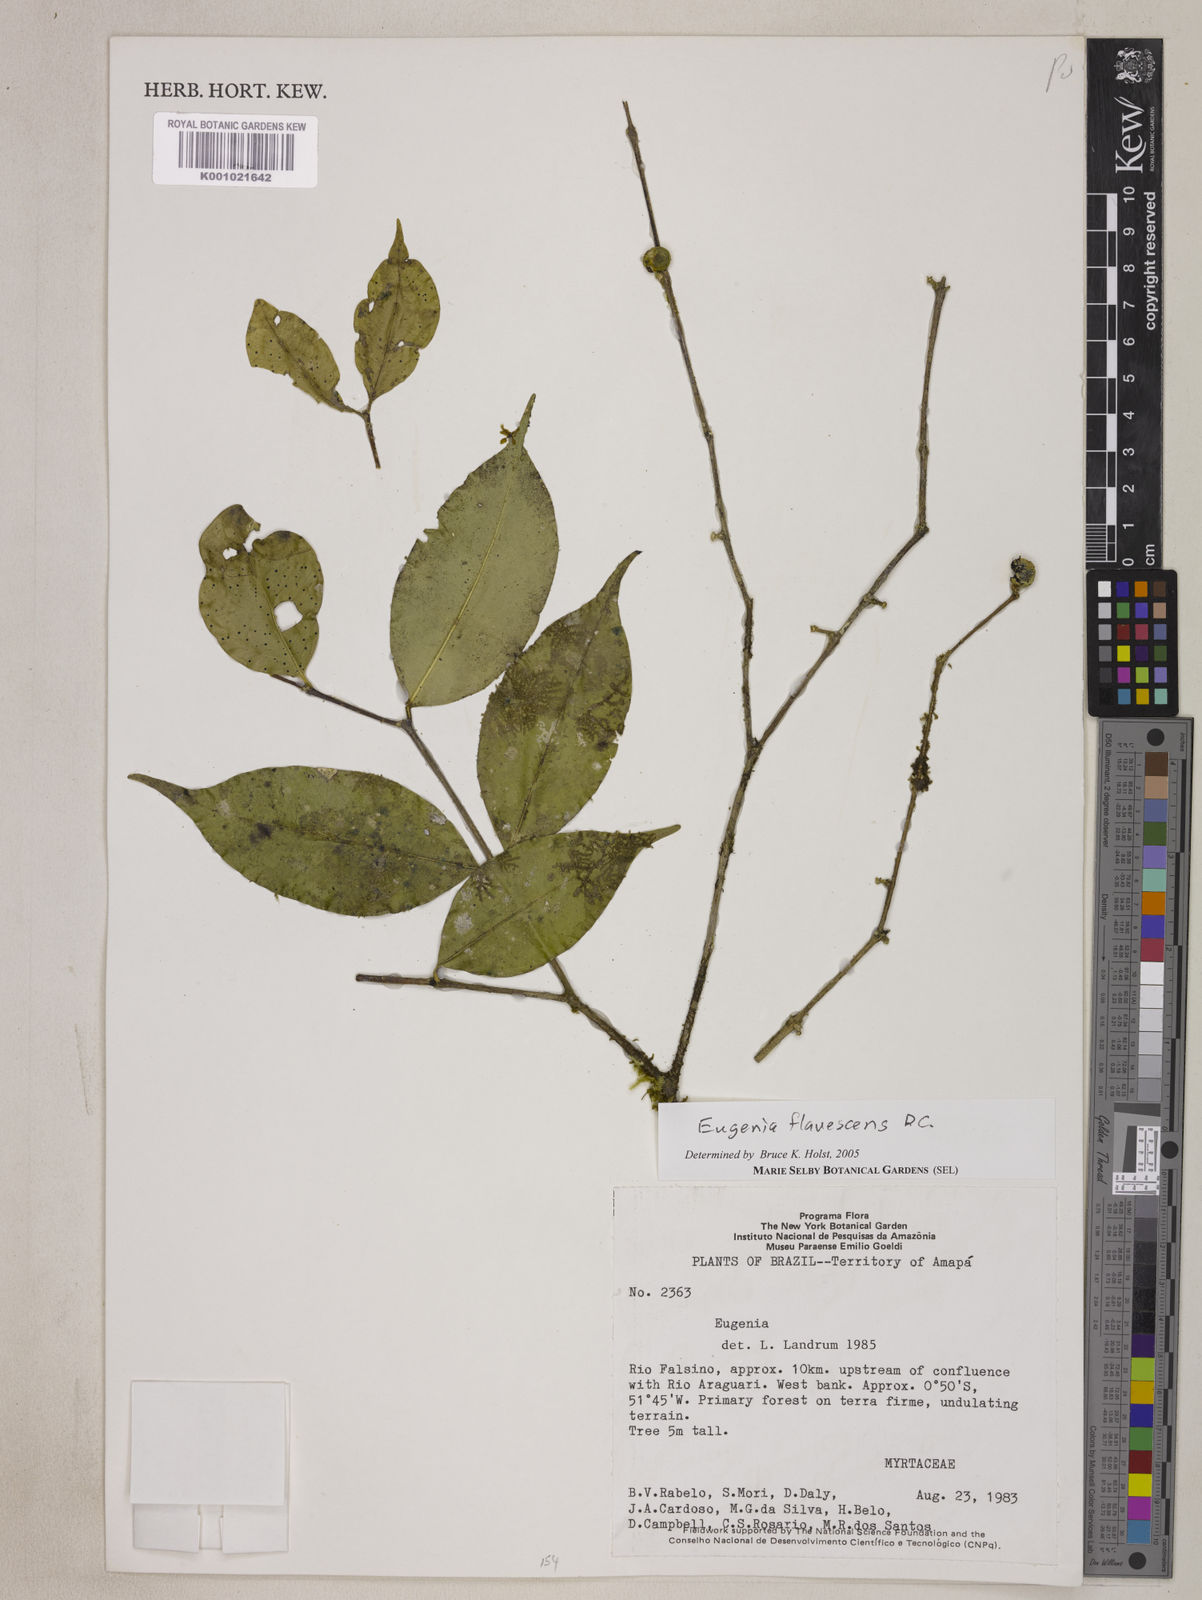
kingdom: Plantae
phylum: Tracheophyta
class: Magnoliopsida
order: Myrtales
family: Myrtaceae
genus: Eugenia
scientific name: Eugenia flavescens
